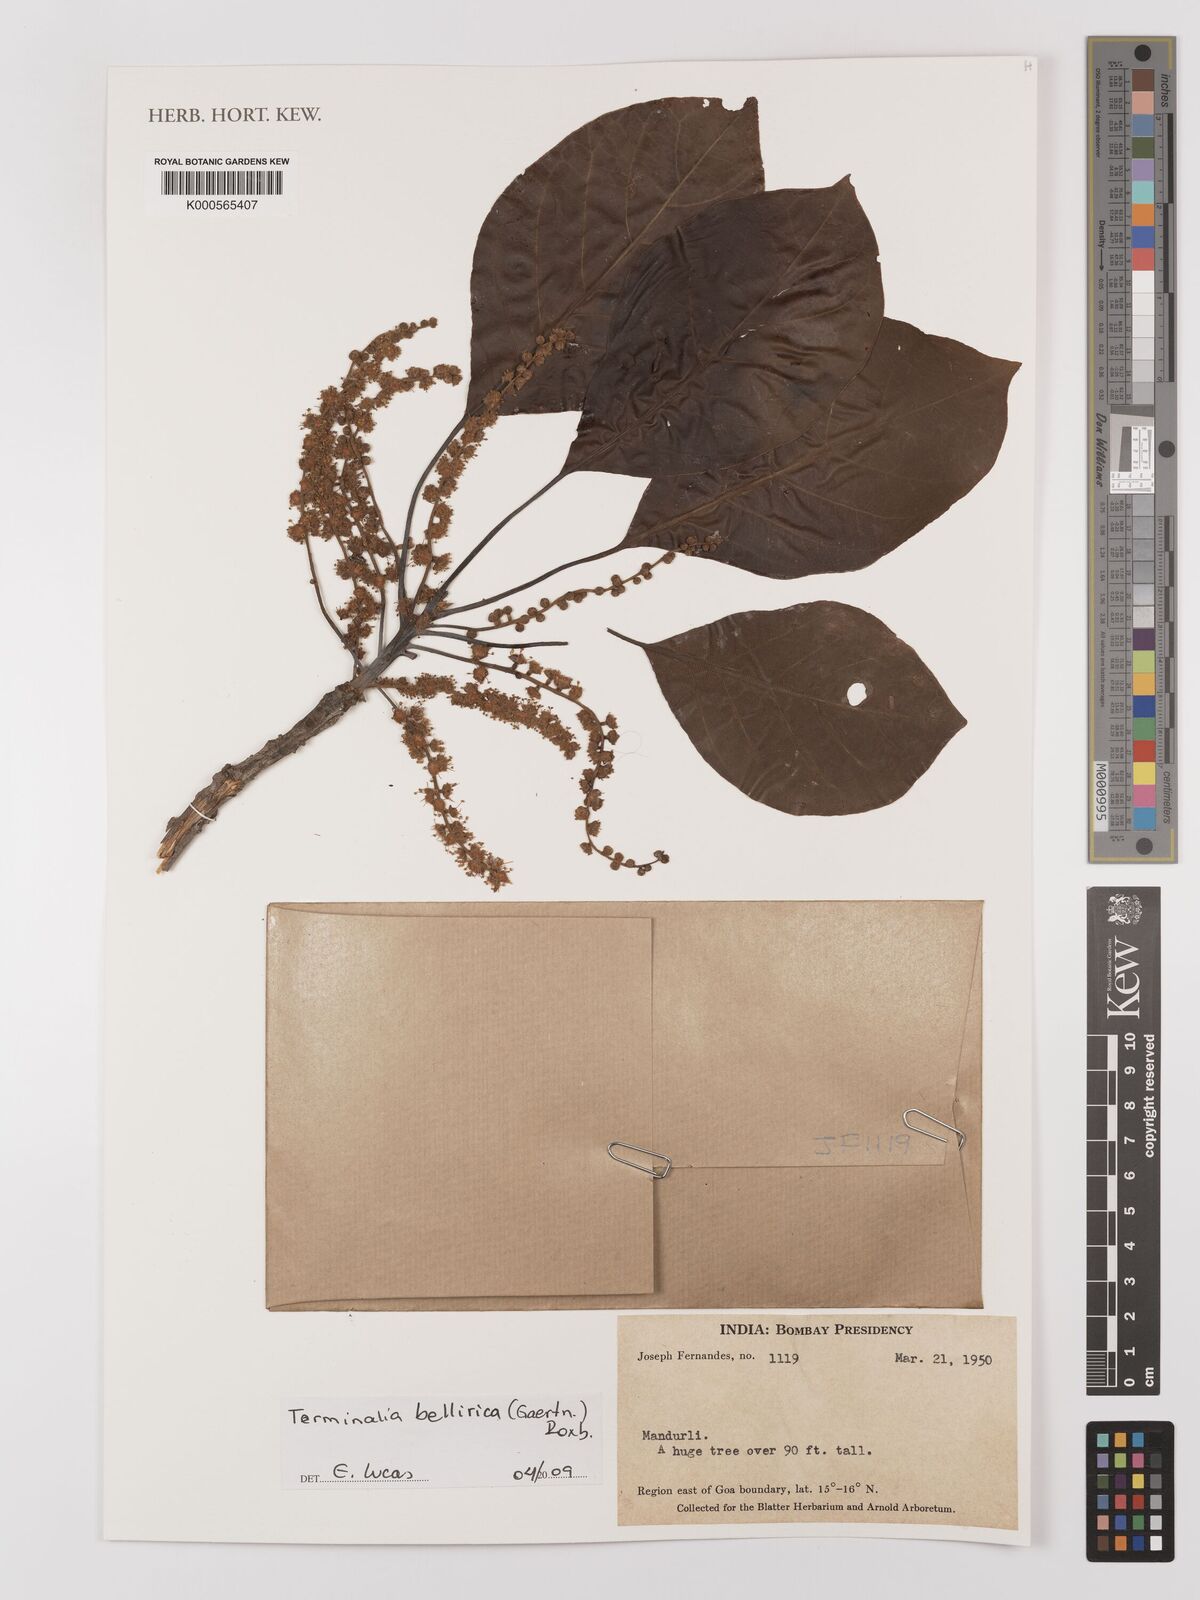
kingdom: Plantae
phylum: Tracheophyta
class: Magnoliopsida
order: Myrtales
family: Combretaceae
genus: Terminalia
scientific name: Terminalia bellirica
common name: Beleric myrobalan
